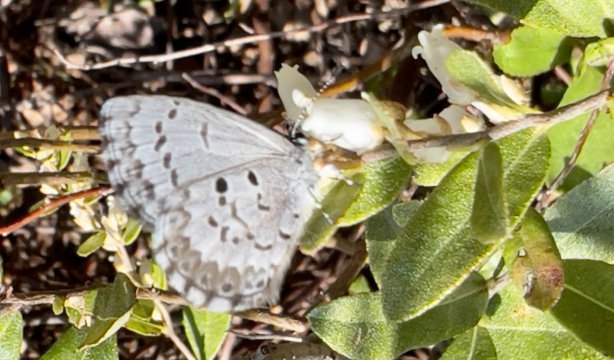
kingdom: Animalia
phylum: Arthropoda
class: Insecta
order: Lepidoptera
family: Lycaenidae
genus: Celastrina
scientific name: Celastrina lucia
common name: Northern Spring Azure
